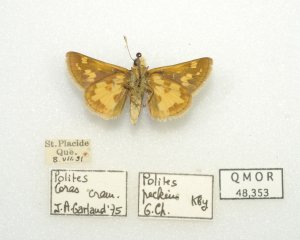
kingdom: Animalia
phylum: Arthropoda
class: Insecta
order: Lepidoptera
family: Hesperiidae
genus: Polites
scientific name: Polites coras
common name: Peck's Skipper
